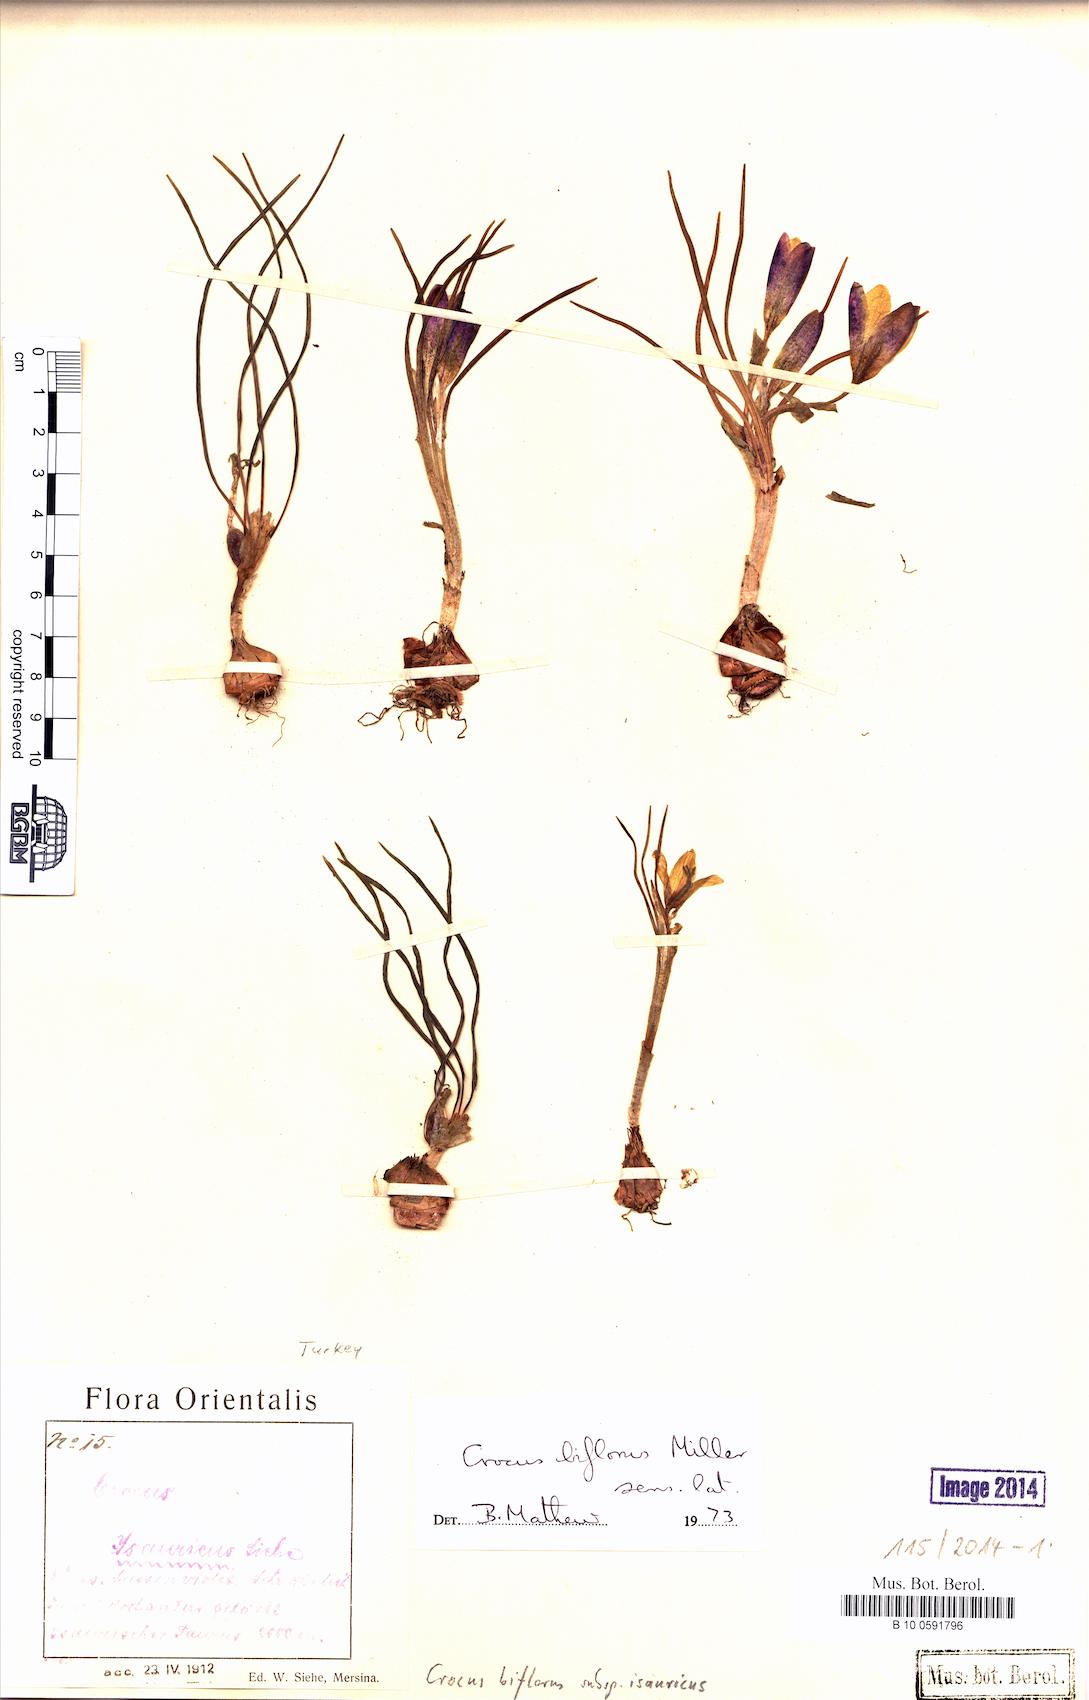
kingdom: Plantae
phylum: Tracheophyta
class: Liliopsida
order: Asparagales
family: Iridaceae
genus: Crocus
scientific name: Crocus isauricus
